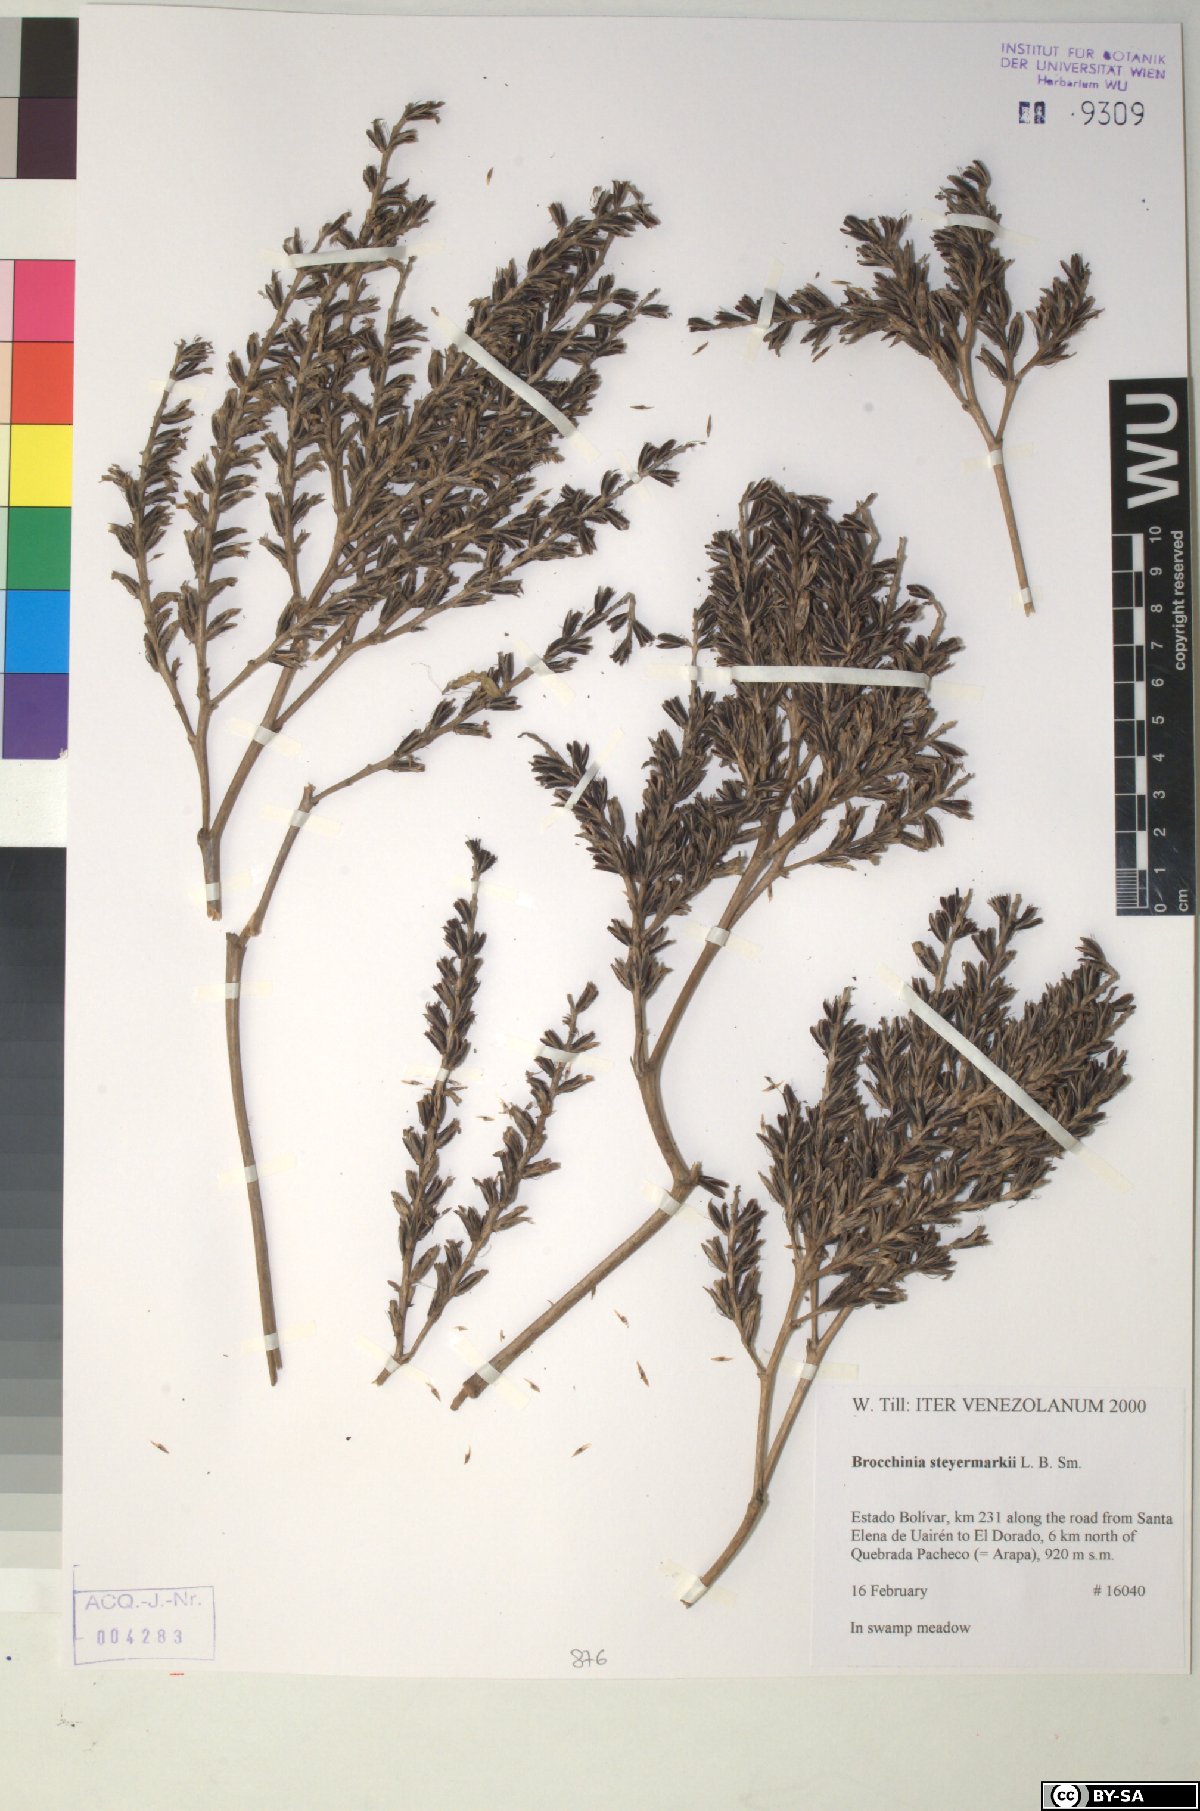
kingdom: Plantae
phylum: Tracheophyta
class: Liliopsida
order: Poales
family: Bromeliaceae
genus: Brocchinia
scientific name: Brocchinia steyermarkii
